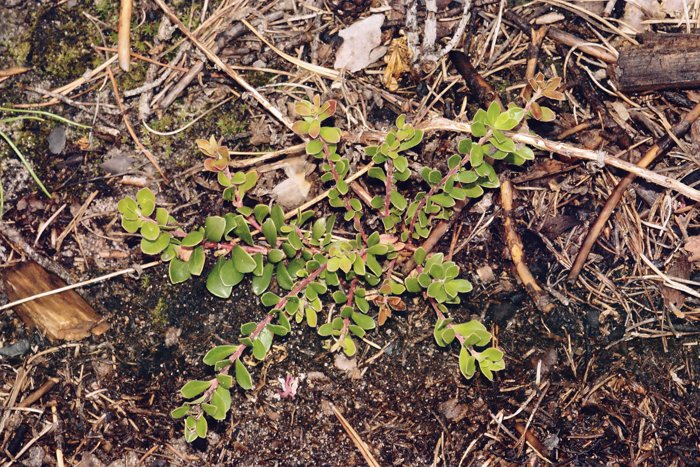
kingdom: Plantae
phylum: Tracheophyta
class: Magnoliopsida
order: Ericales
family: Ericaceae
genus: Arctostaphylos
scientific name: Arctostaphylos uva-ursi
